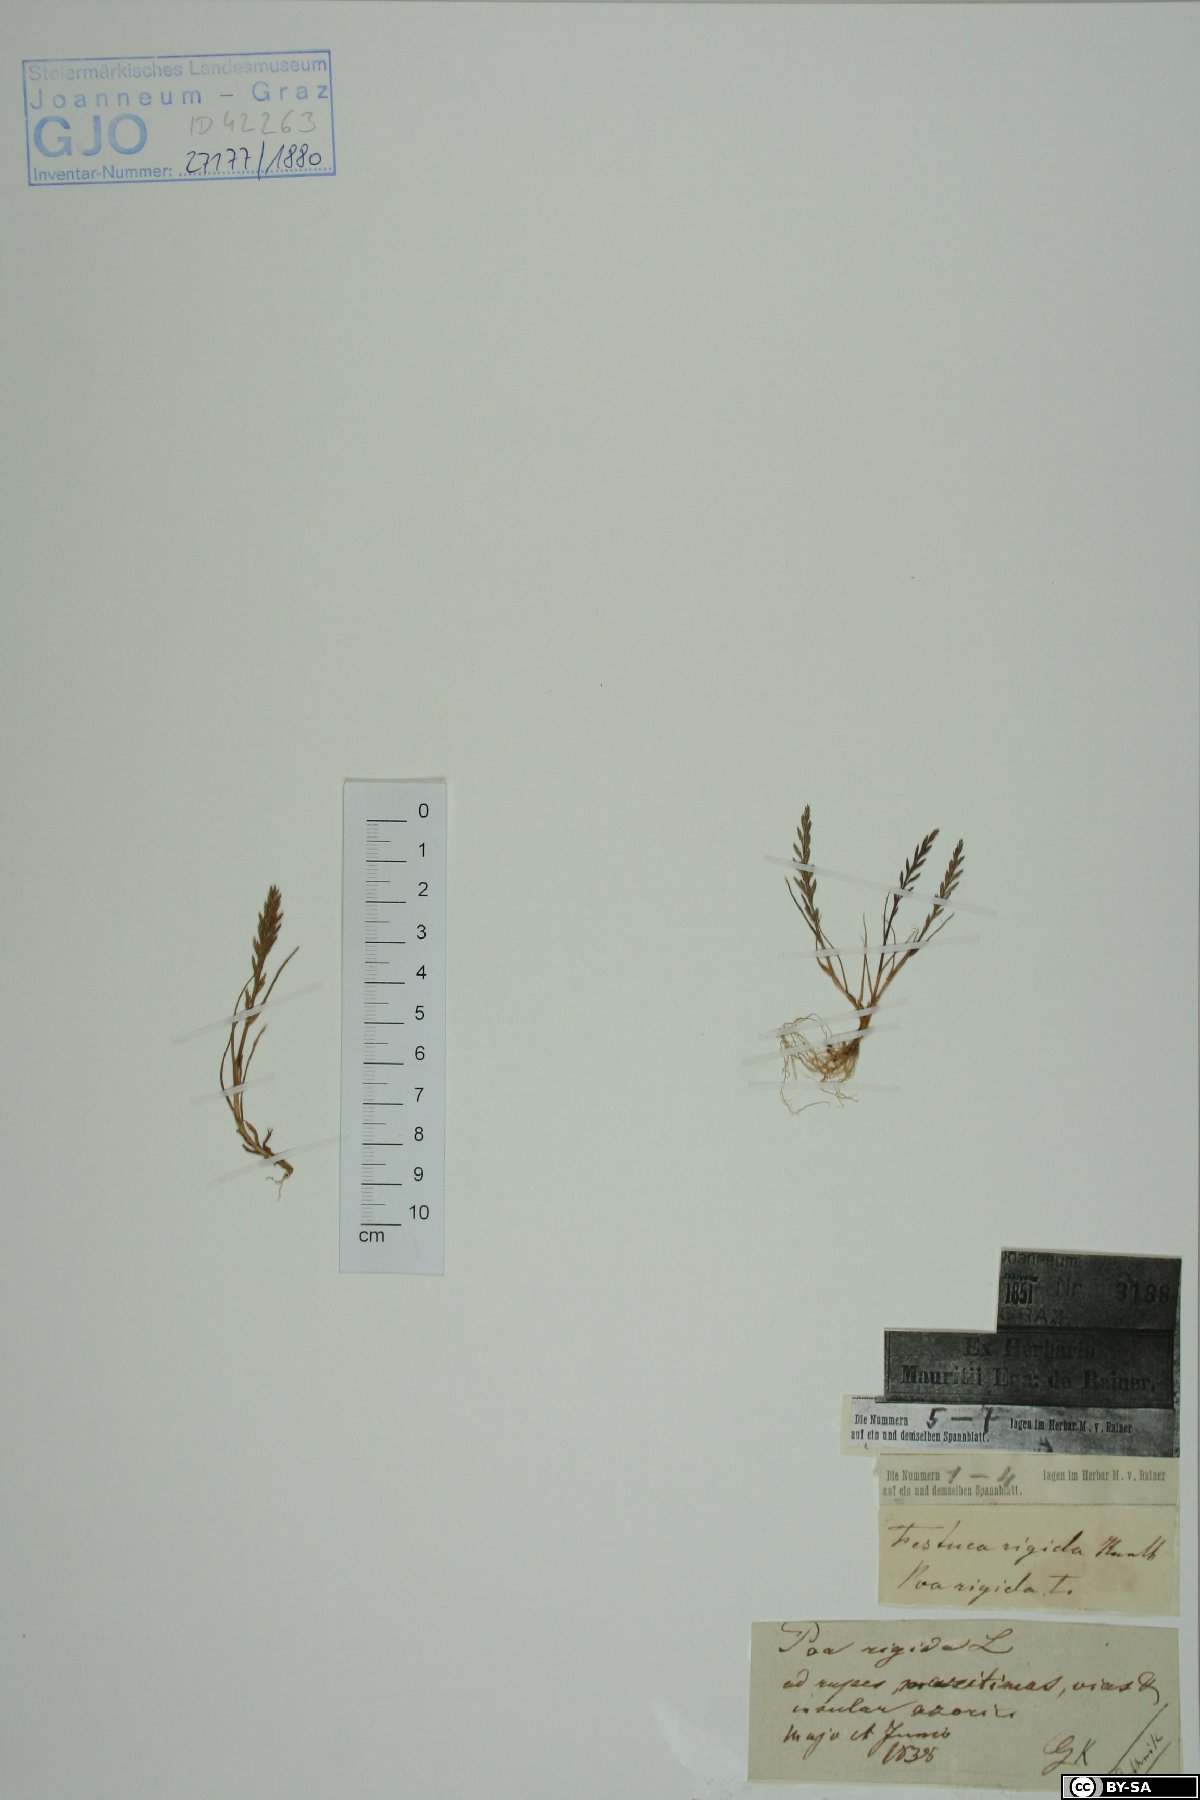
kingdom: Plantae
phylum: Tracheophyta
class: Liliopsida
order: Poales
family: Poaceae
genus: Catapodium
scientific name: Catapodium rigidum
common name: Fern-grass
